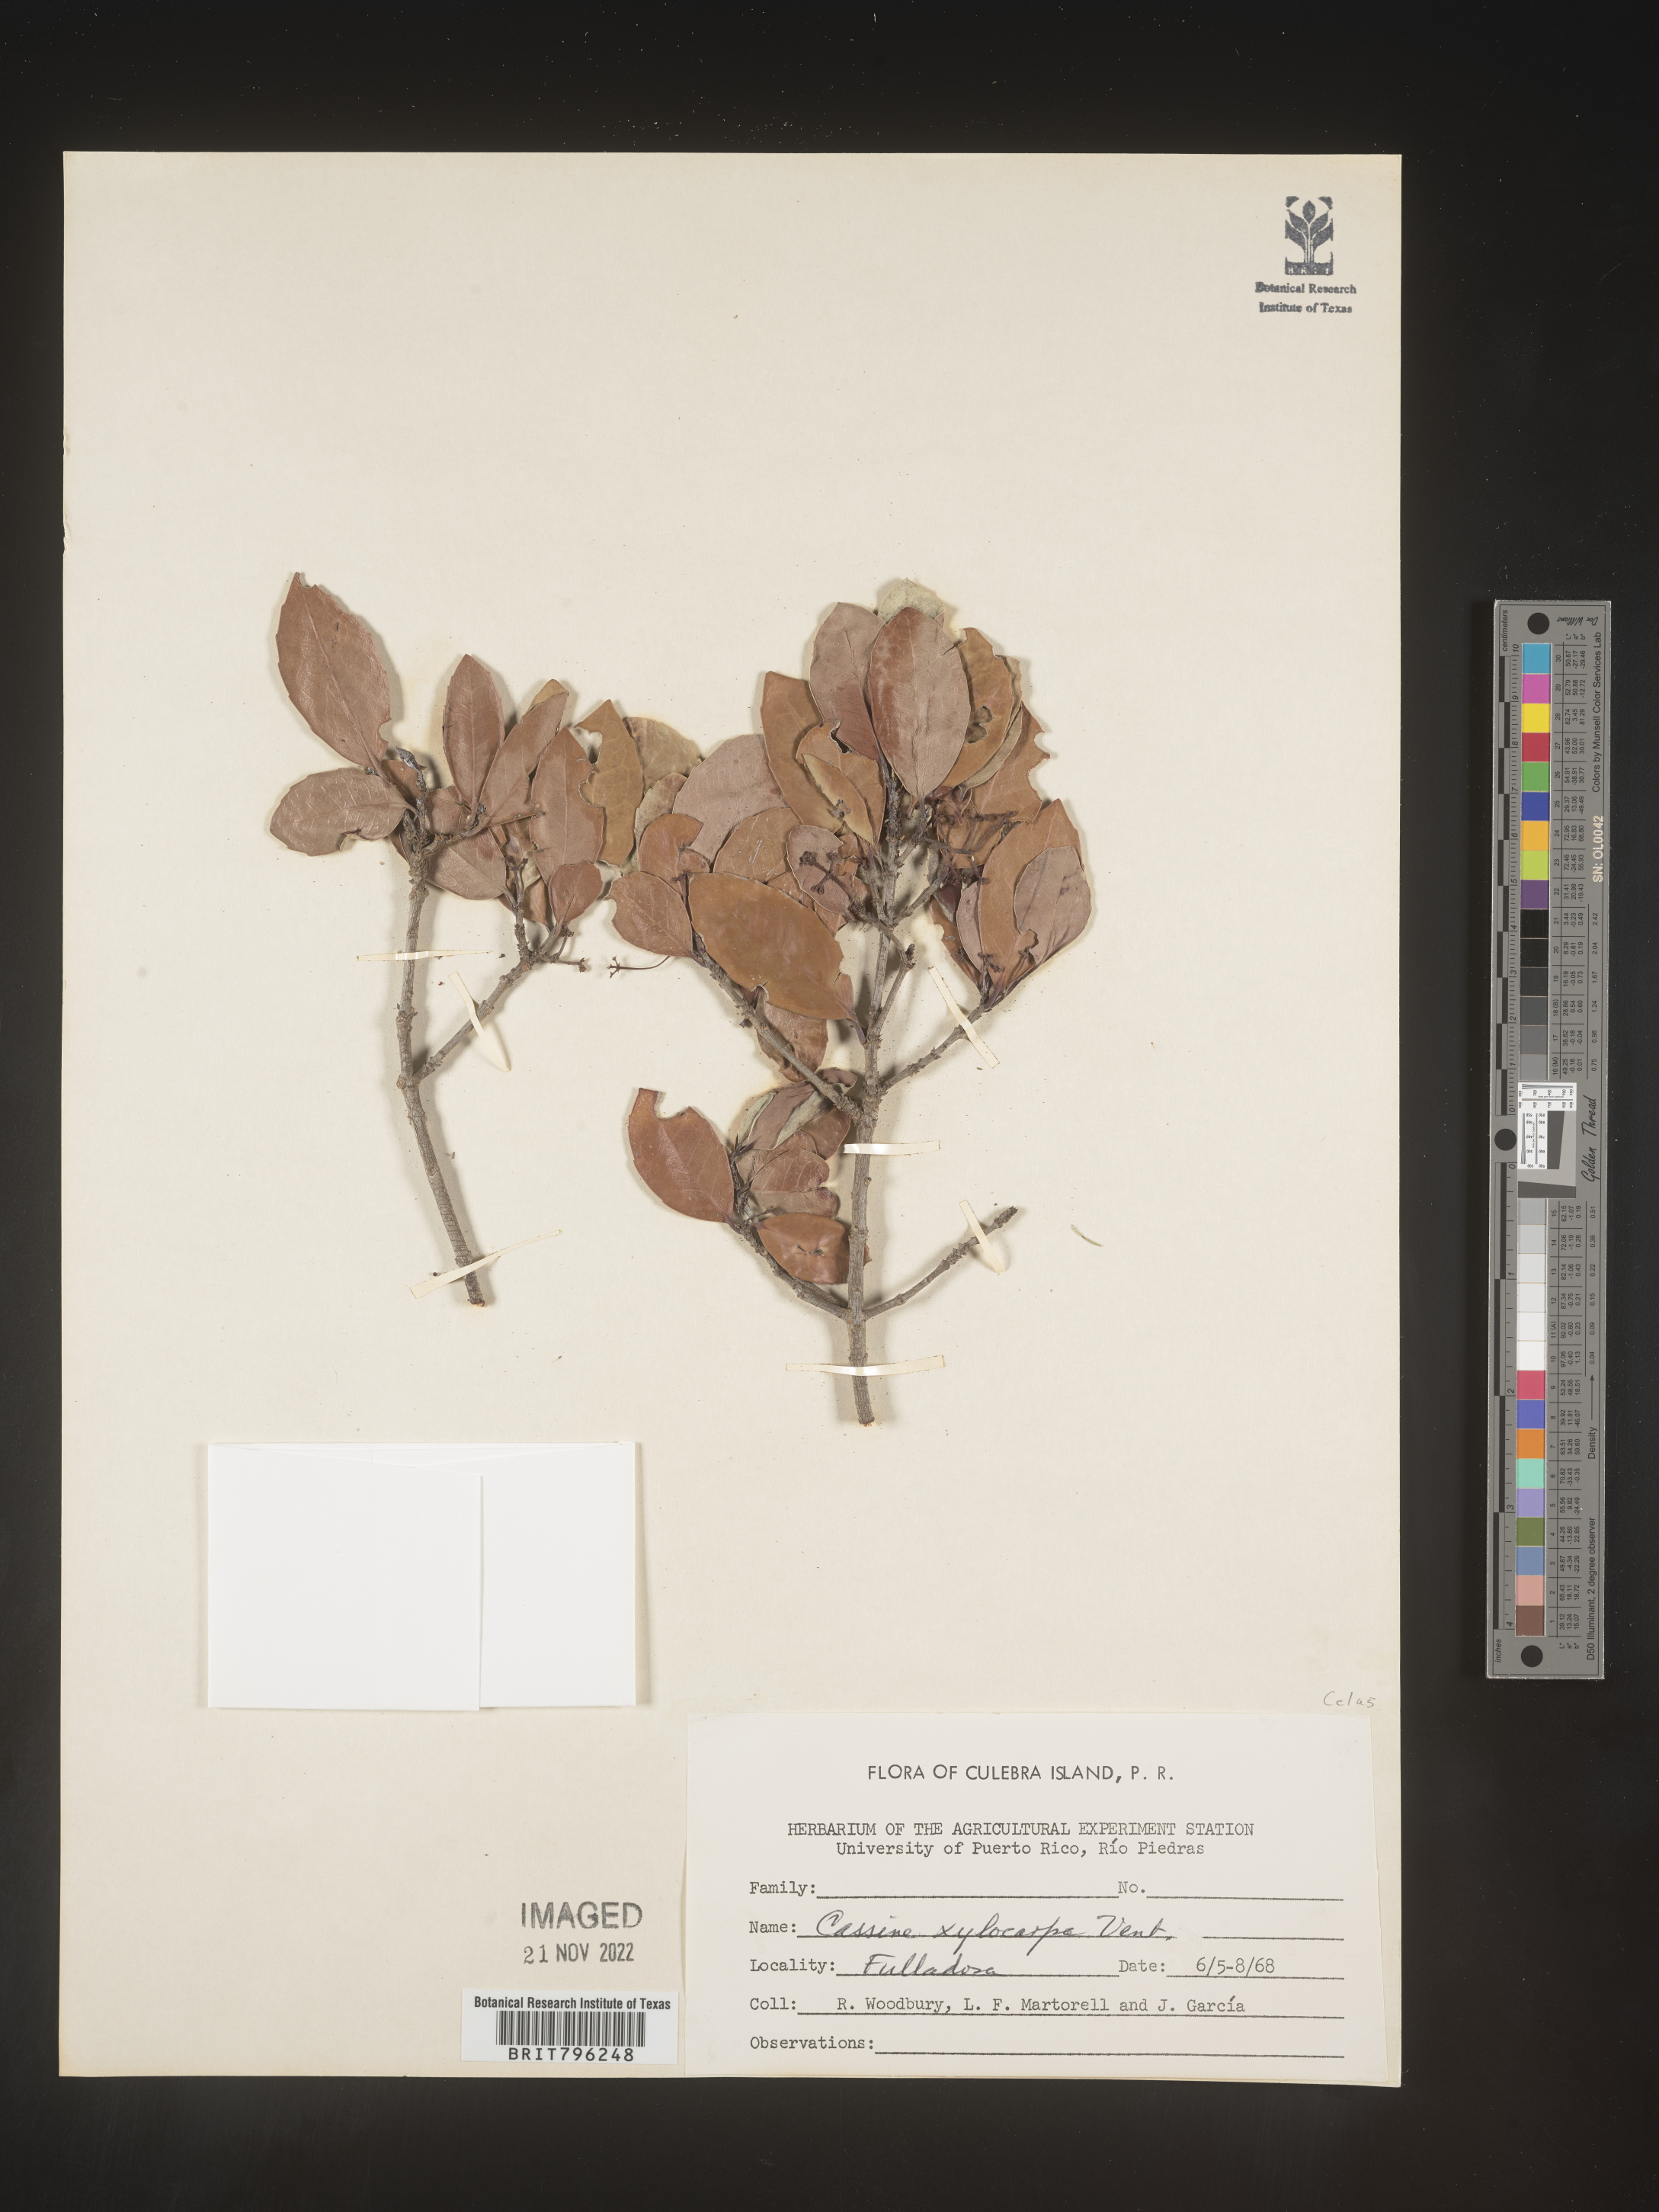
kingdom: Plantae
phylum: Tracheophyta
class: Magnoliopsida
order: Celastrales
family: Celastraceae
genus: Elaeodendron
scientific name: Elaeodendron
